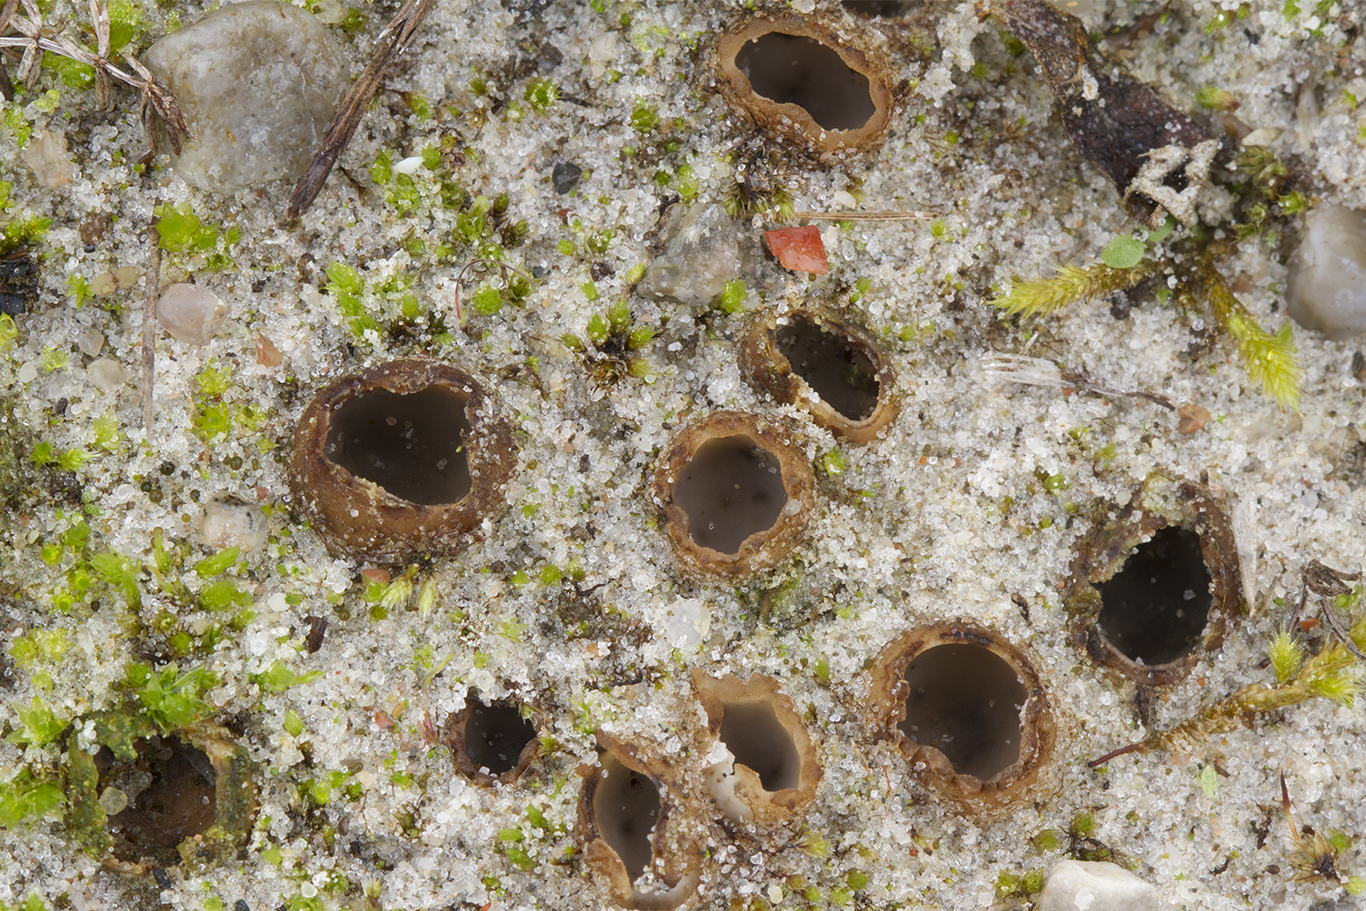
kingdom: Fungi
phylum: Ascomycota
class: Pezizomycetes
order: Pezizales
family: Pyronemataceae
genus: Geopora
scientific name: Geopora arenicola
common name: trøffel-jordbæger
